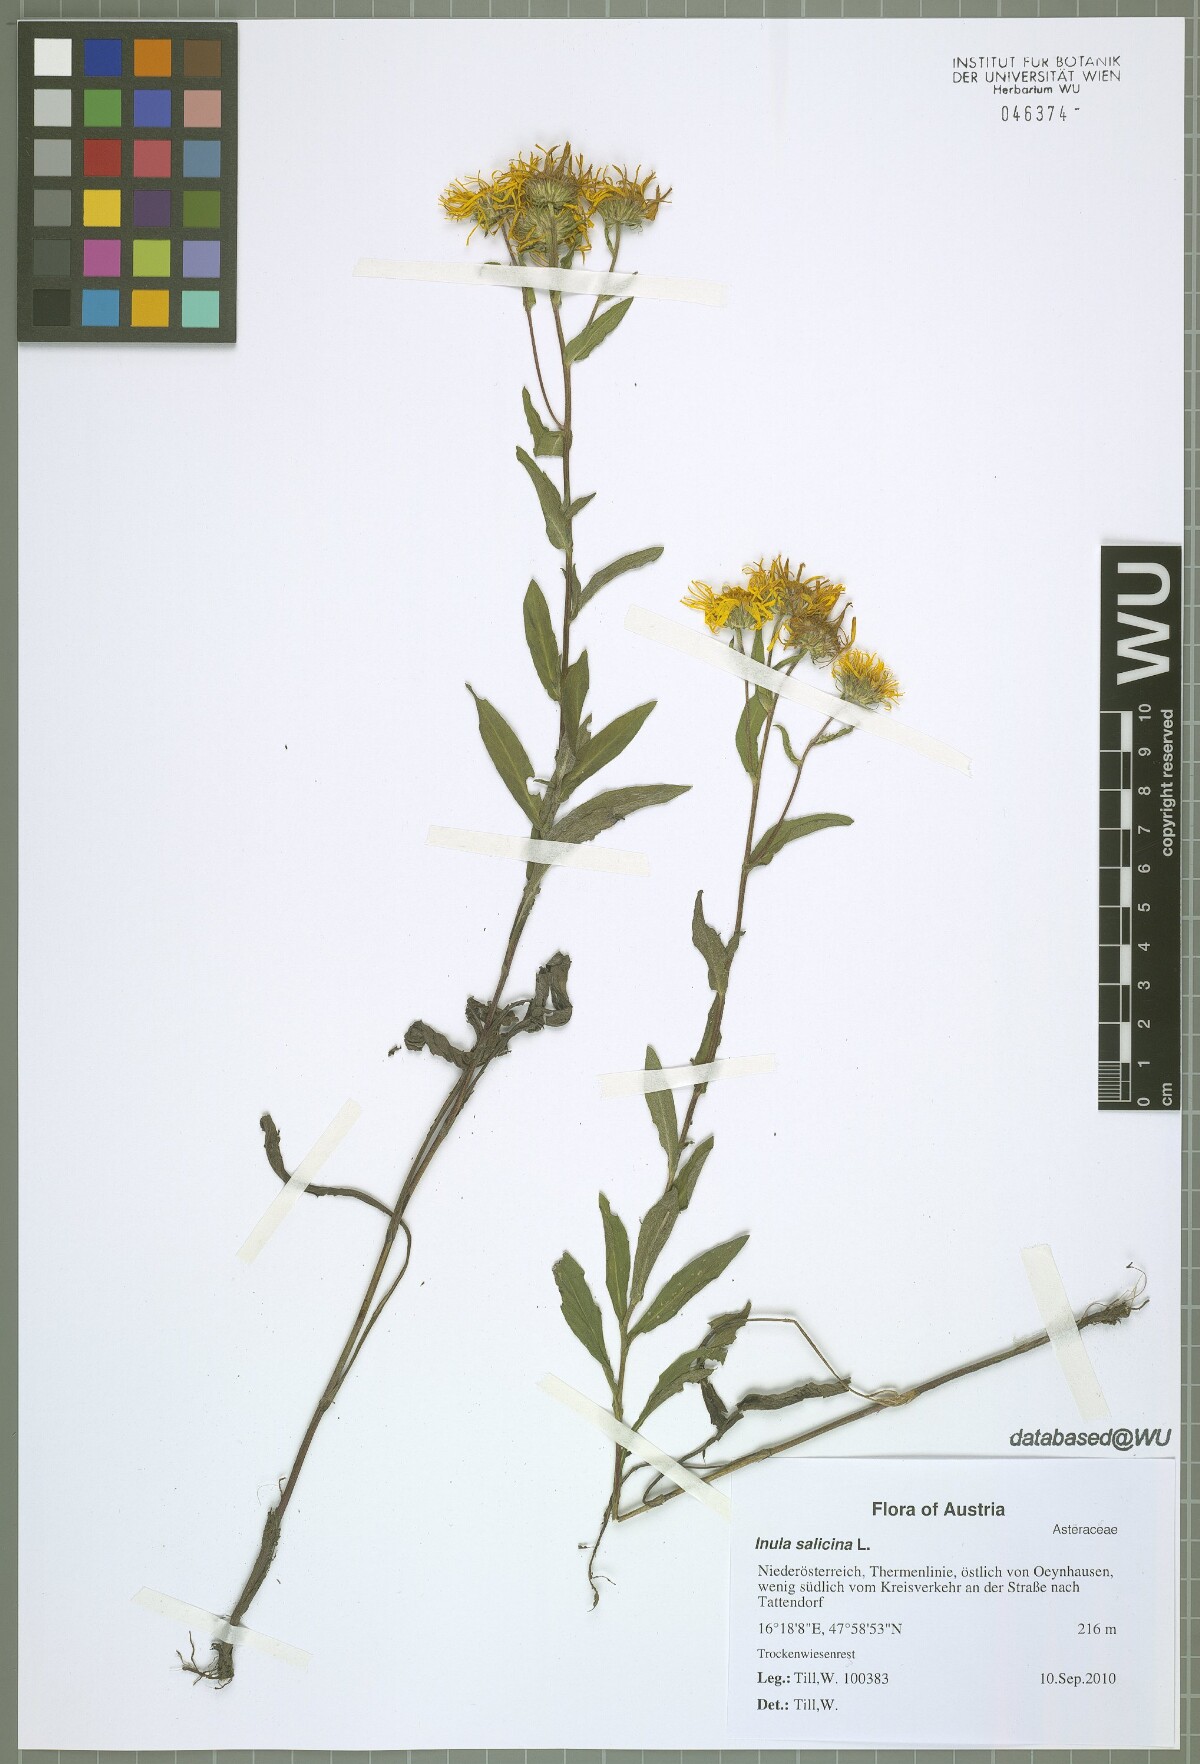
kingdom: Plantae
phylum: Tracheophyta
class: Magnoliopsida
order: Asterales
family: Asteraceae
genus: Pentanema
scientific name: Pentanema britannicum
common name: British elecampane
